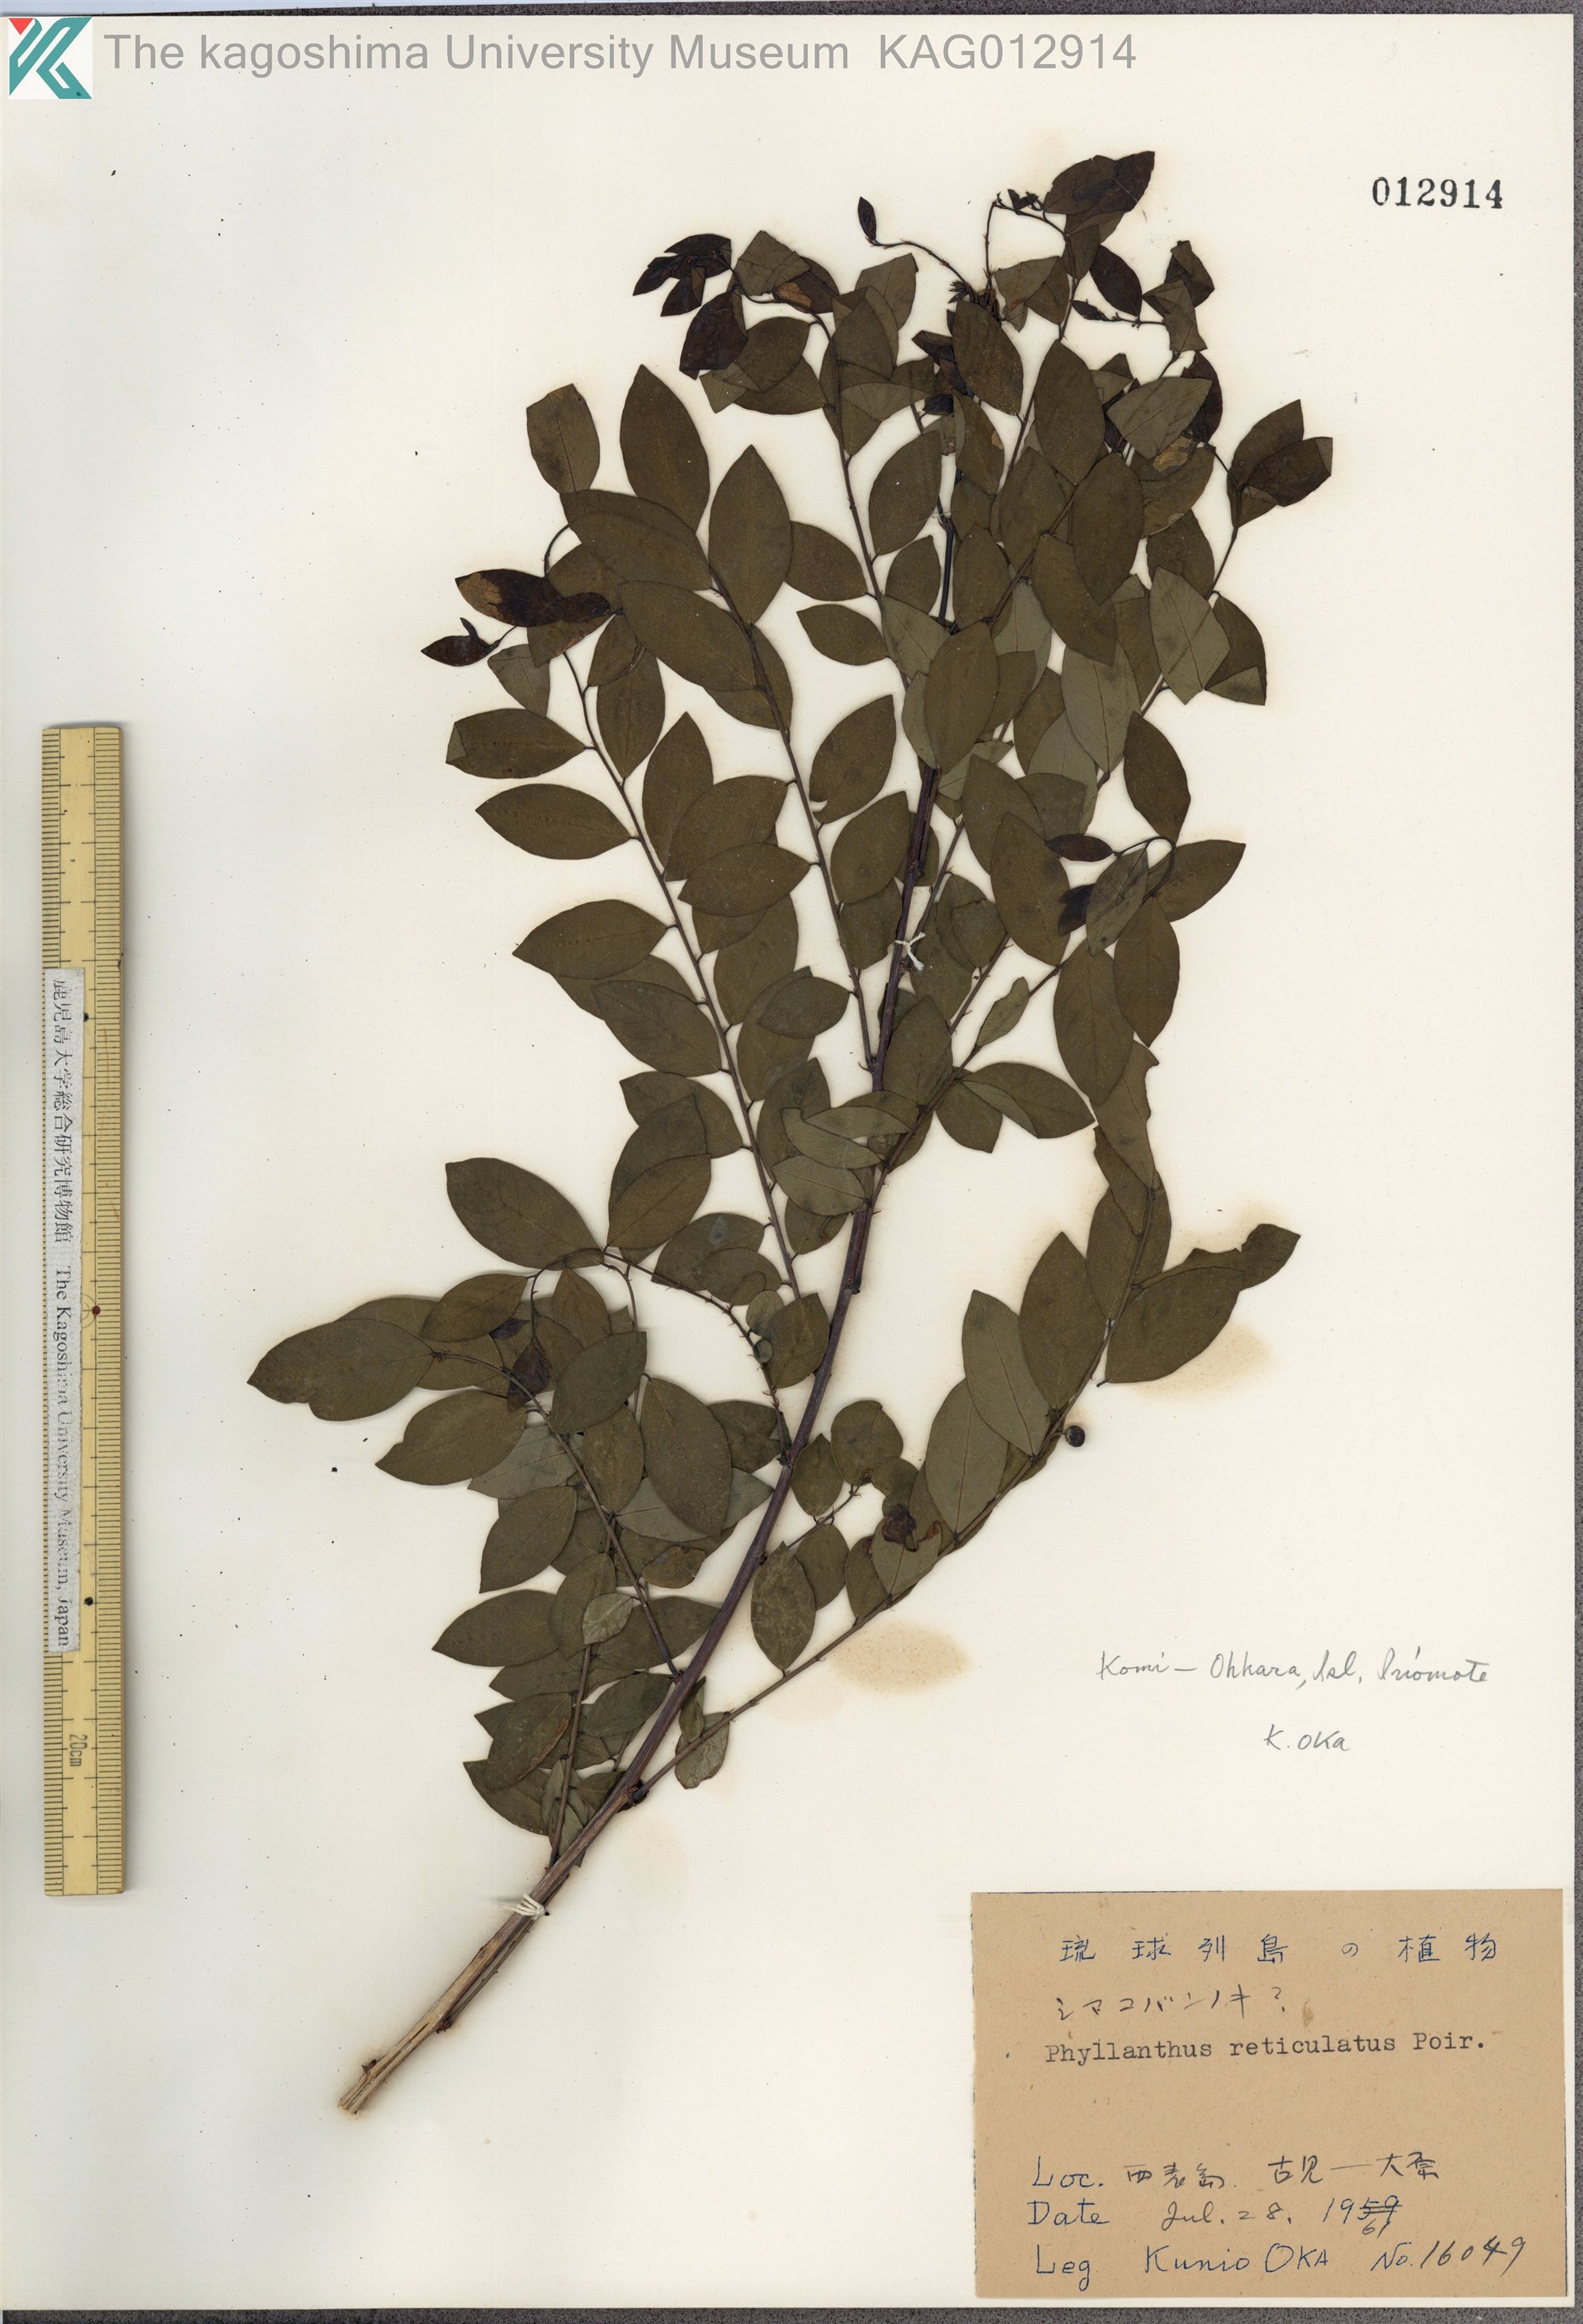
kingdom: Plantae
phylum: Tracheophyta
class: Magnoliopsida
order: Malpighiales
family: Phyllanthaceae
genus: Phyllanthus
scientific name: Phyllanthus reticulatus
